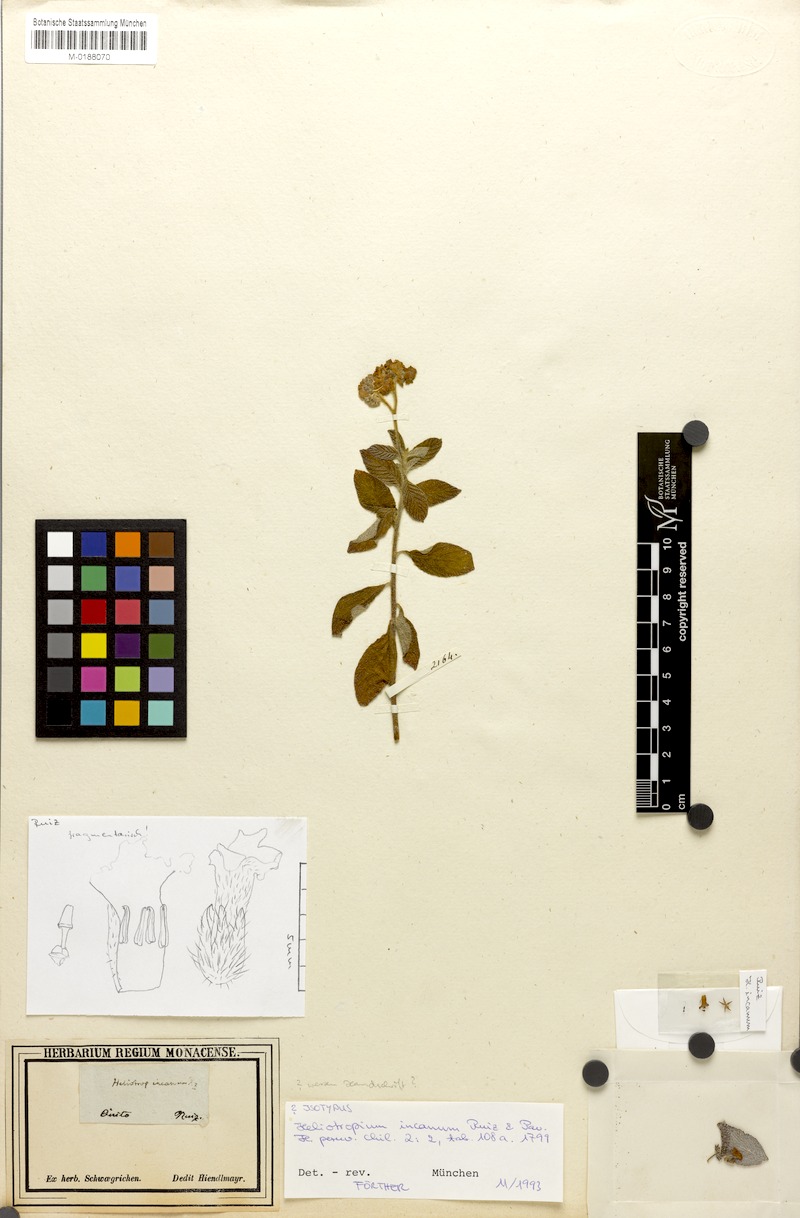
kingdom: Plantae
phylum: Tracheophyta
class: Magnoliopsida
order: Boraginales
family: Heliotropiaceae
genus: Heliotropium
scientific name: Heliotropium incanum
